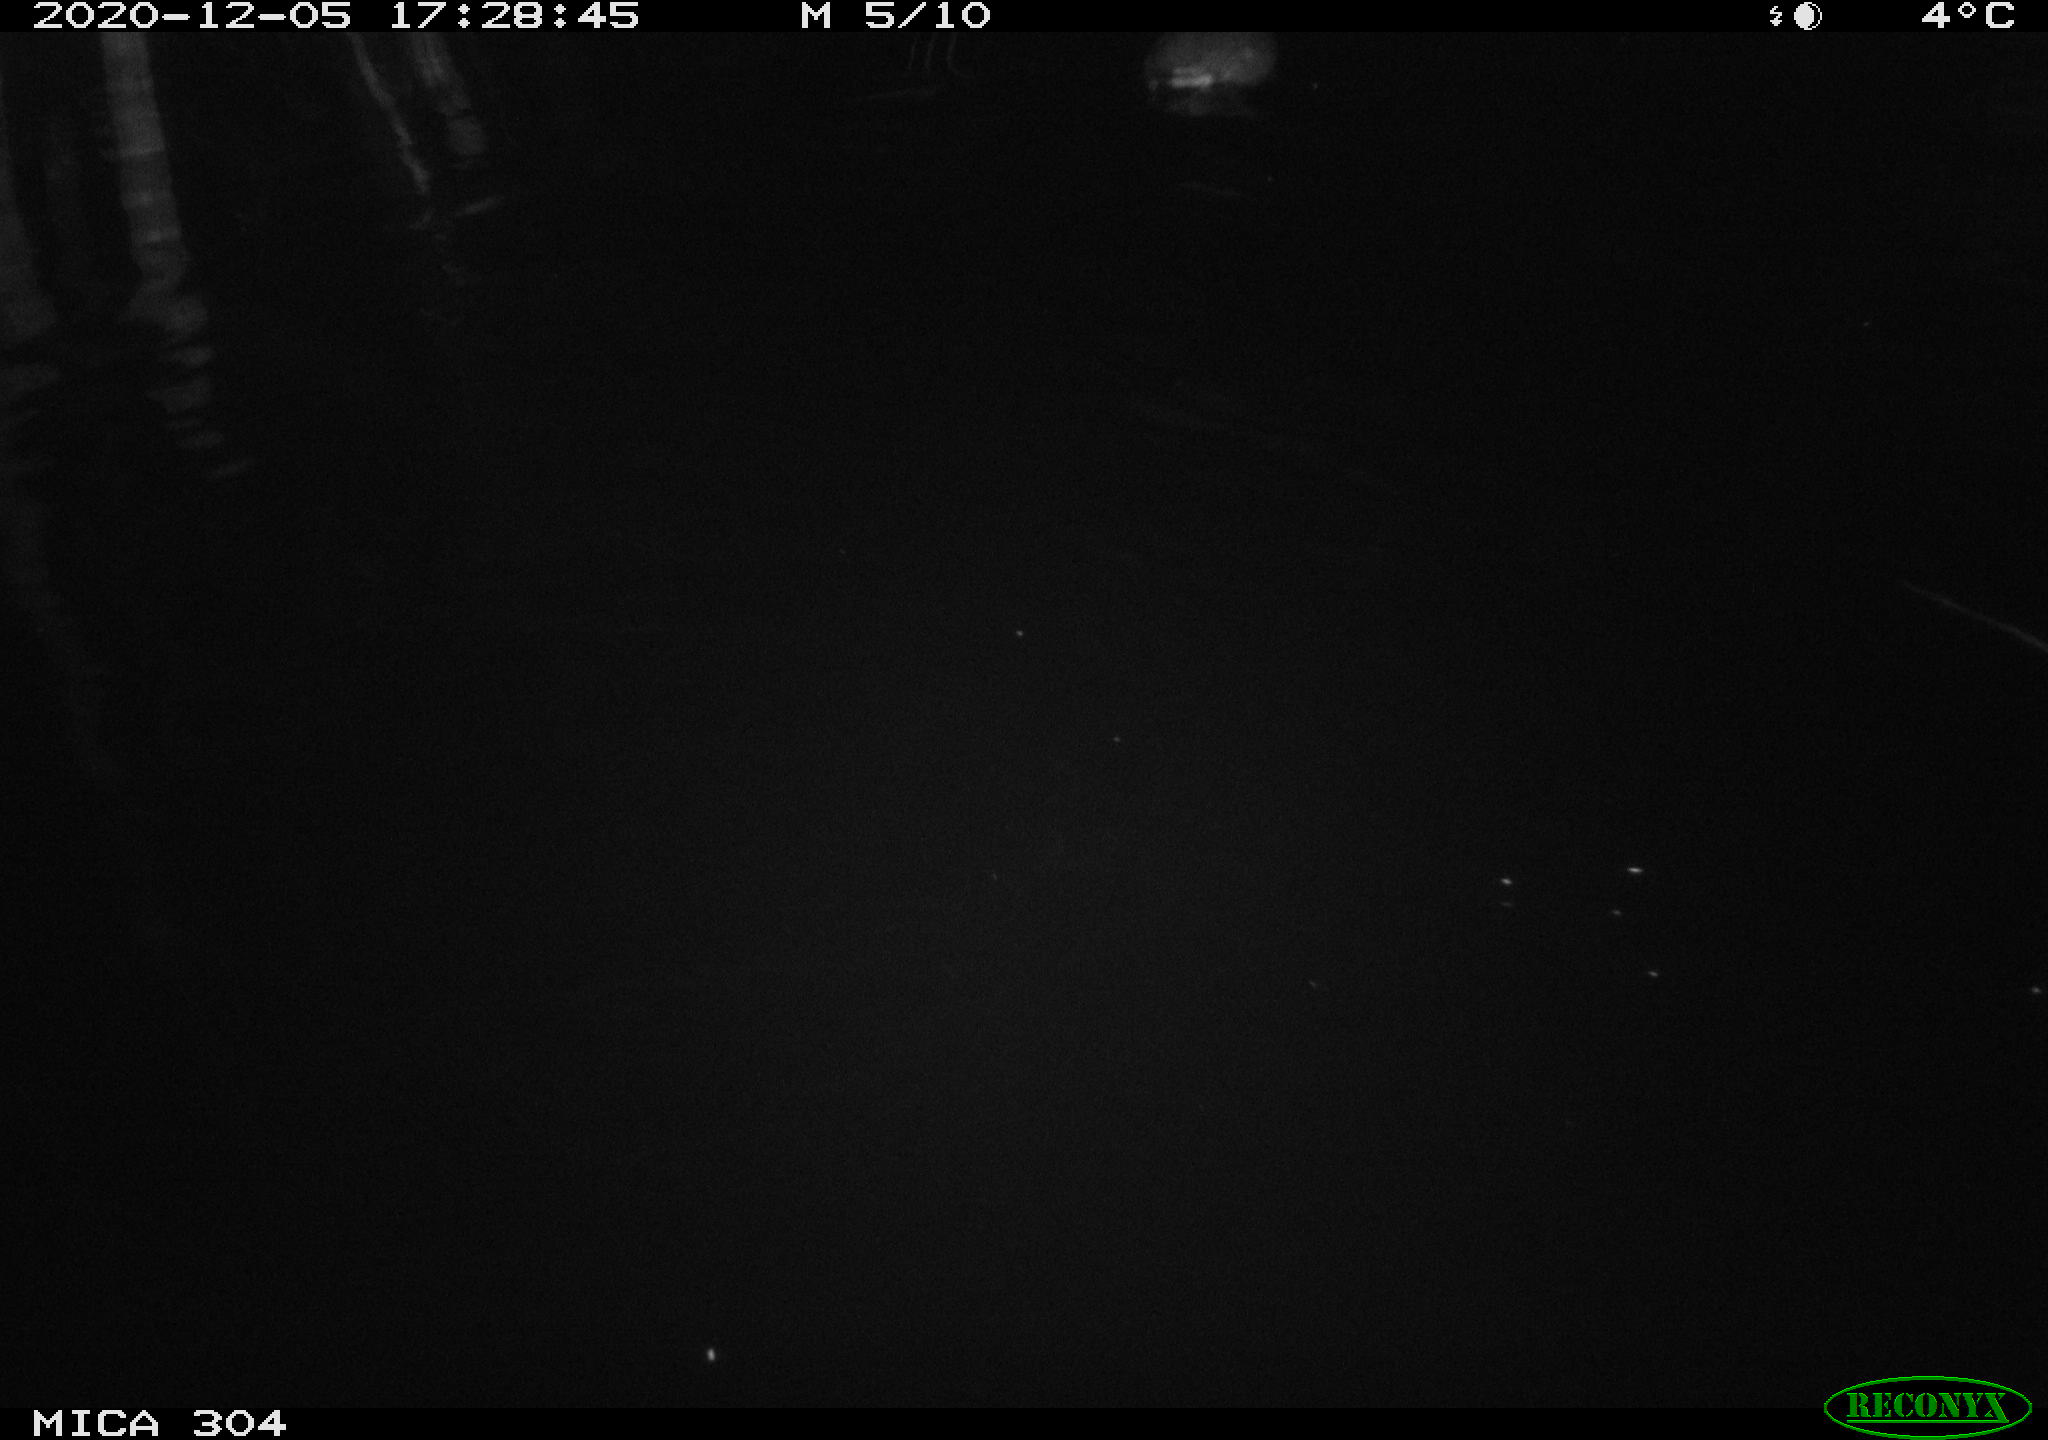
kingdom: Animalia
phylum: Chordata
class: Aves
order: Gruiformes
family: Rallidae
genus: Fulica
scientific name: Fulica atra
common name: Eurasian coot
